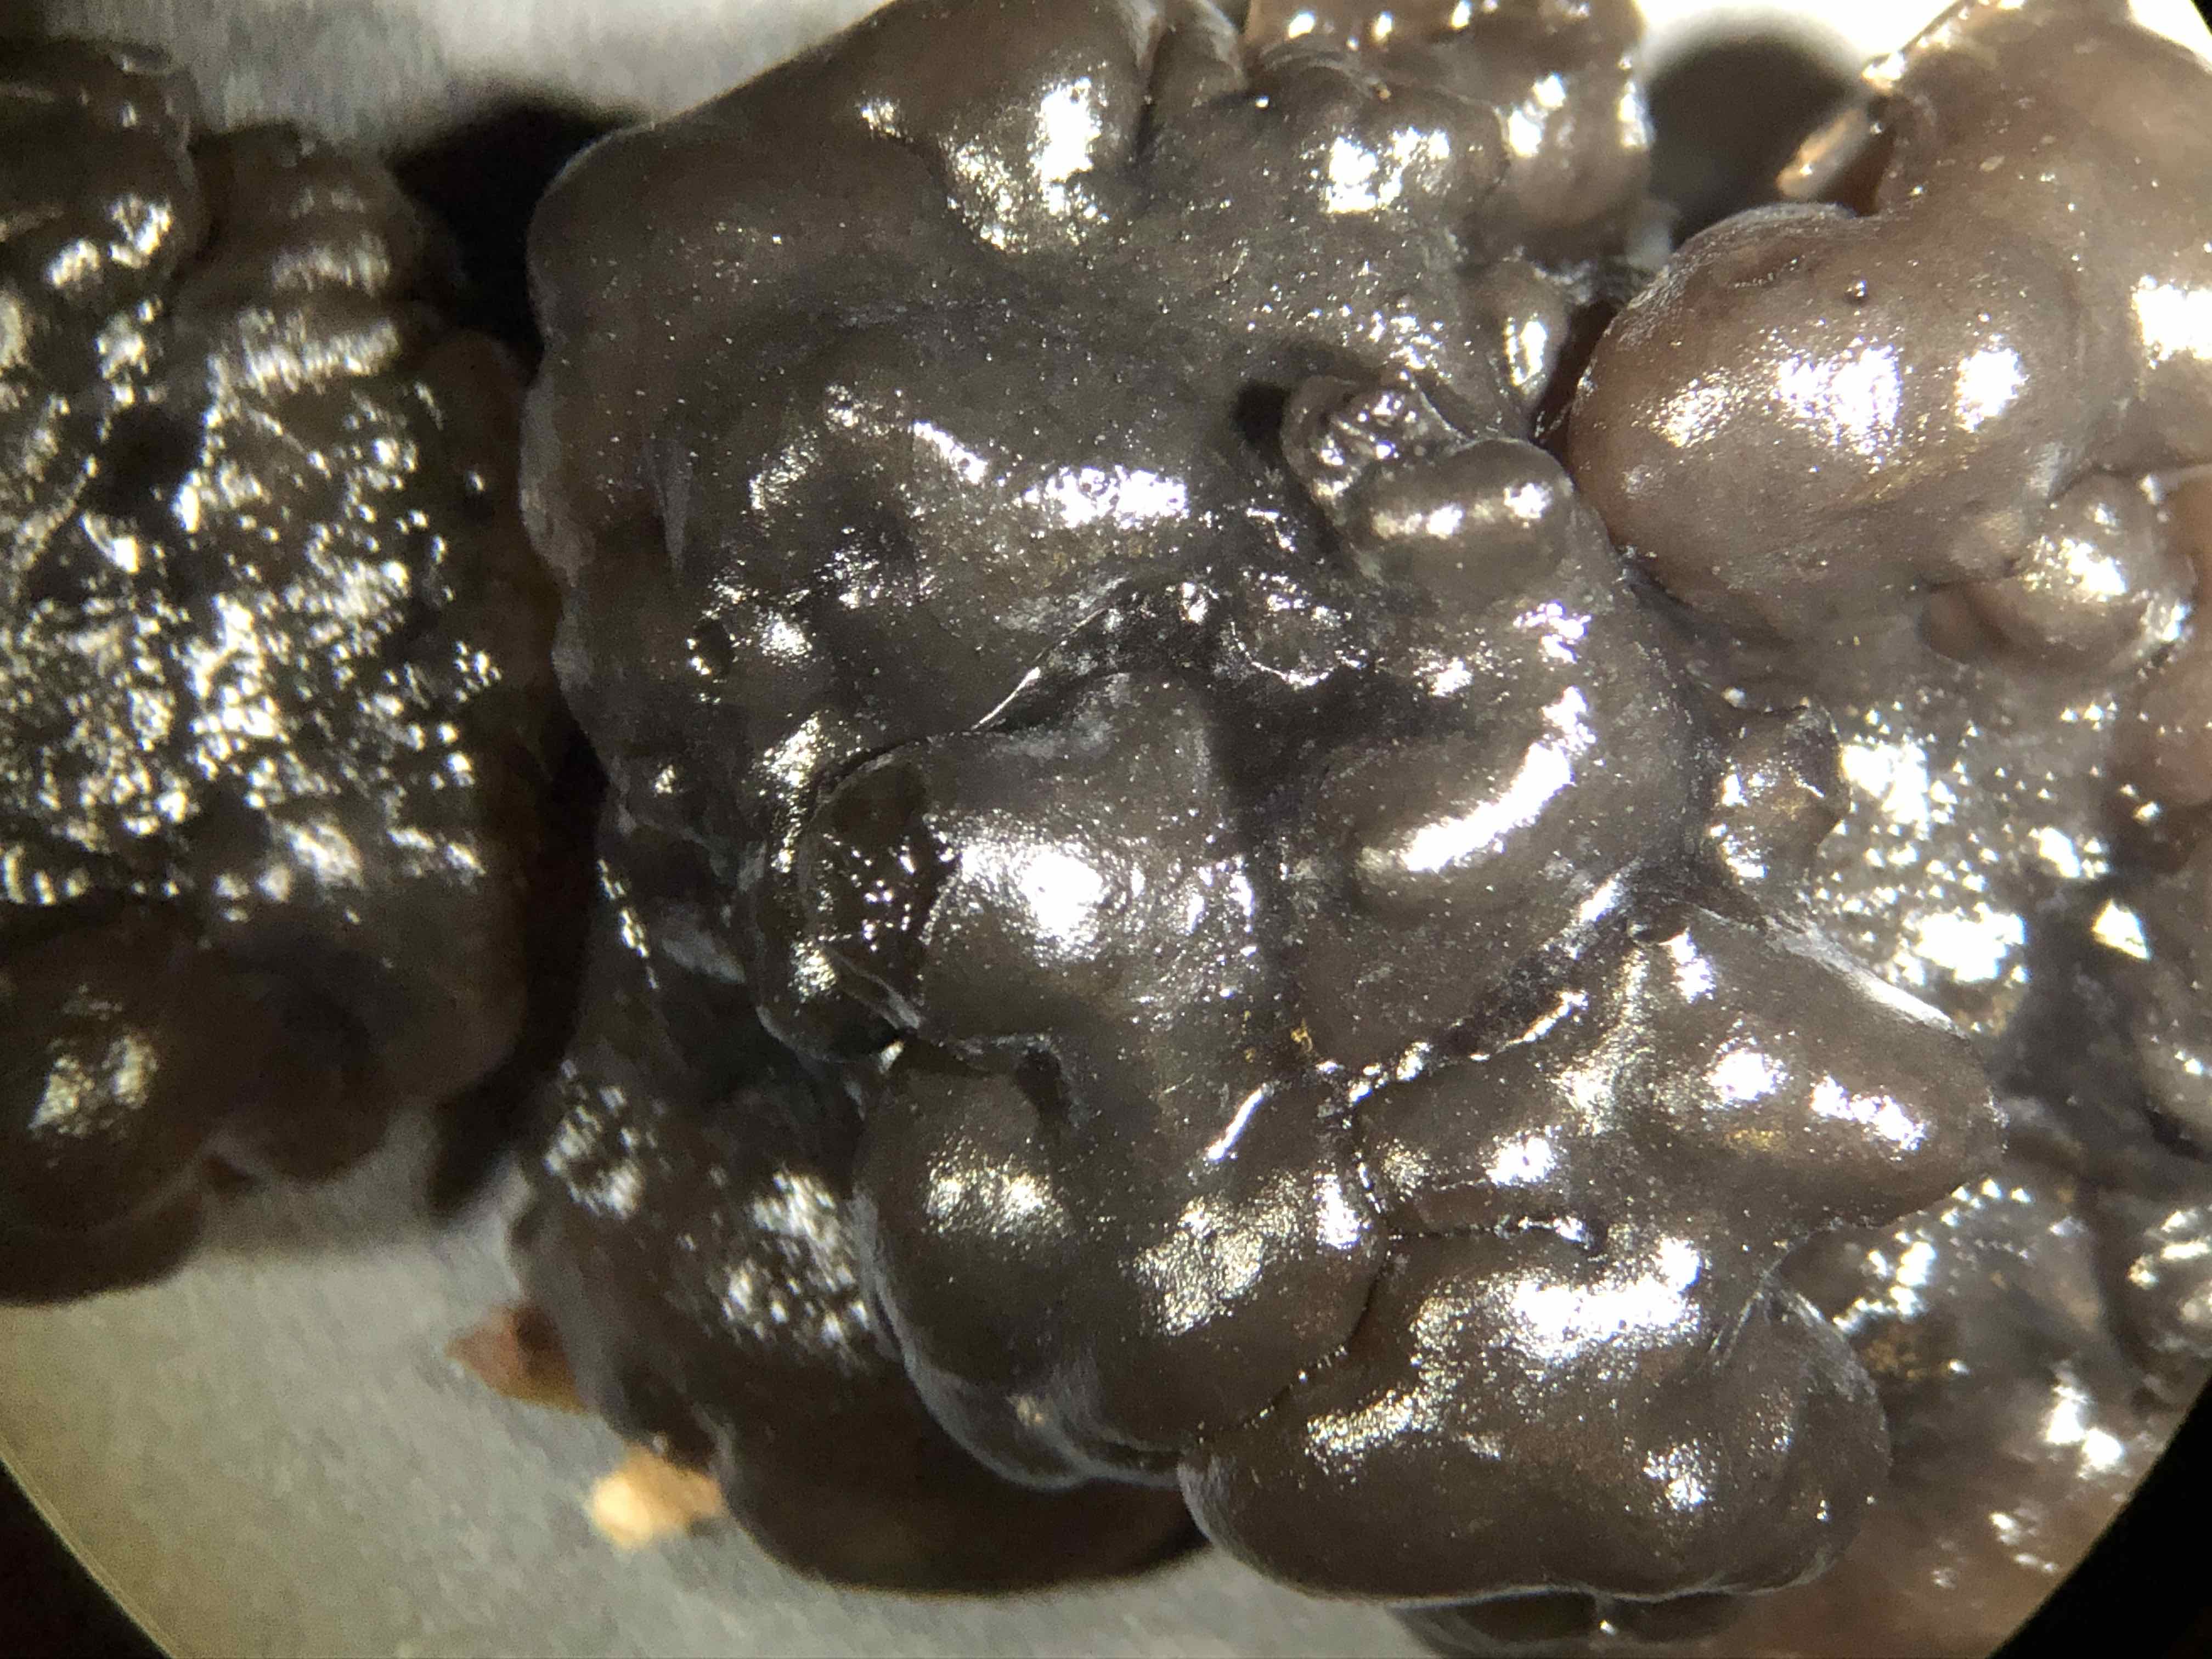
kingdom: Fungi
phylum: Basidiomycota
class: Agaricomycetes
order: Auriculariales
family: Auriculariaceae
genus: Exidia
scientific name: Exidia nigricans
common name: almindelig bævretop
